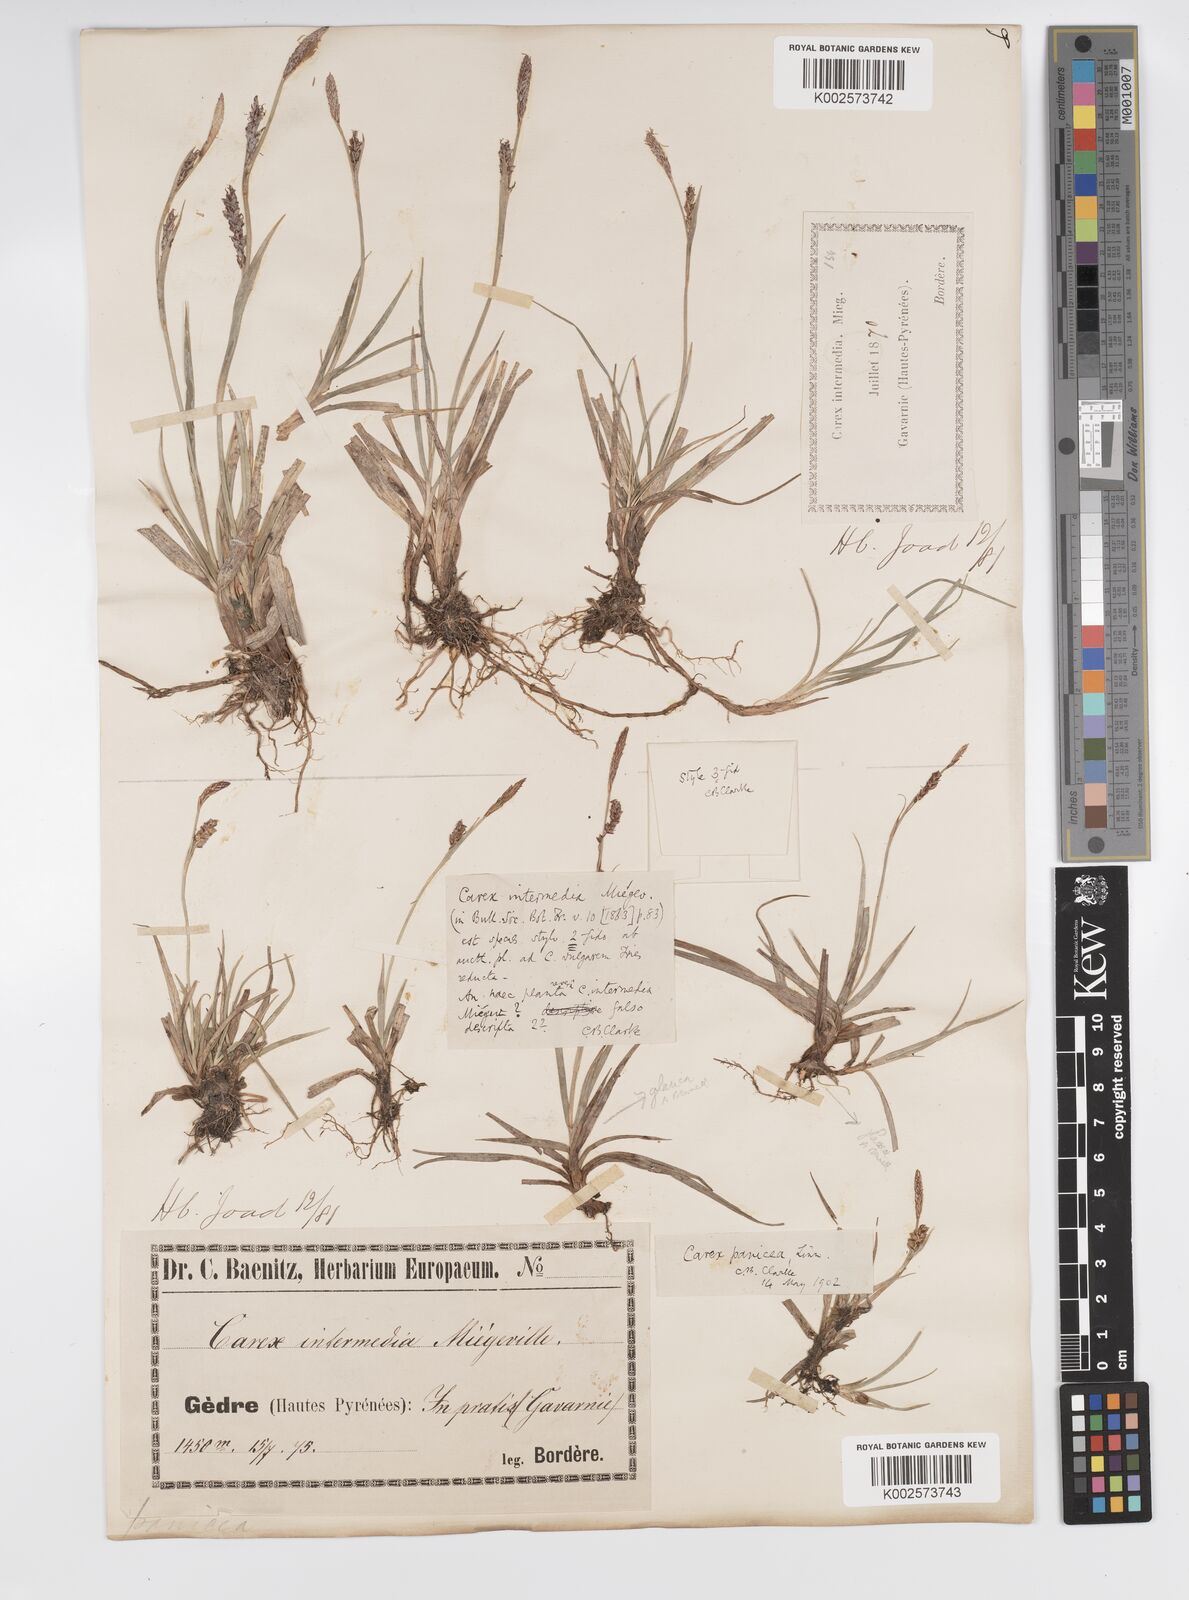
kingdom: Plantae
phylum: Tracheophyta
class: Liliopsida
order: Poales
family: Cyperaceae
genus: Carex
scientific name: Carex panicea
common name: Carnation sedge
